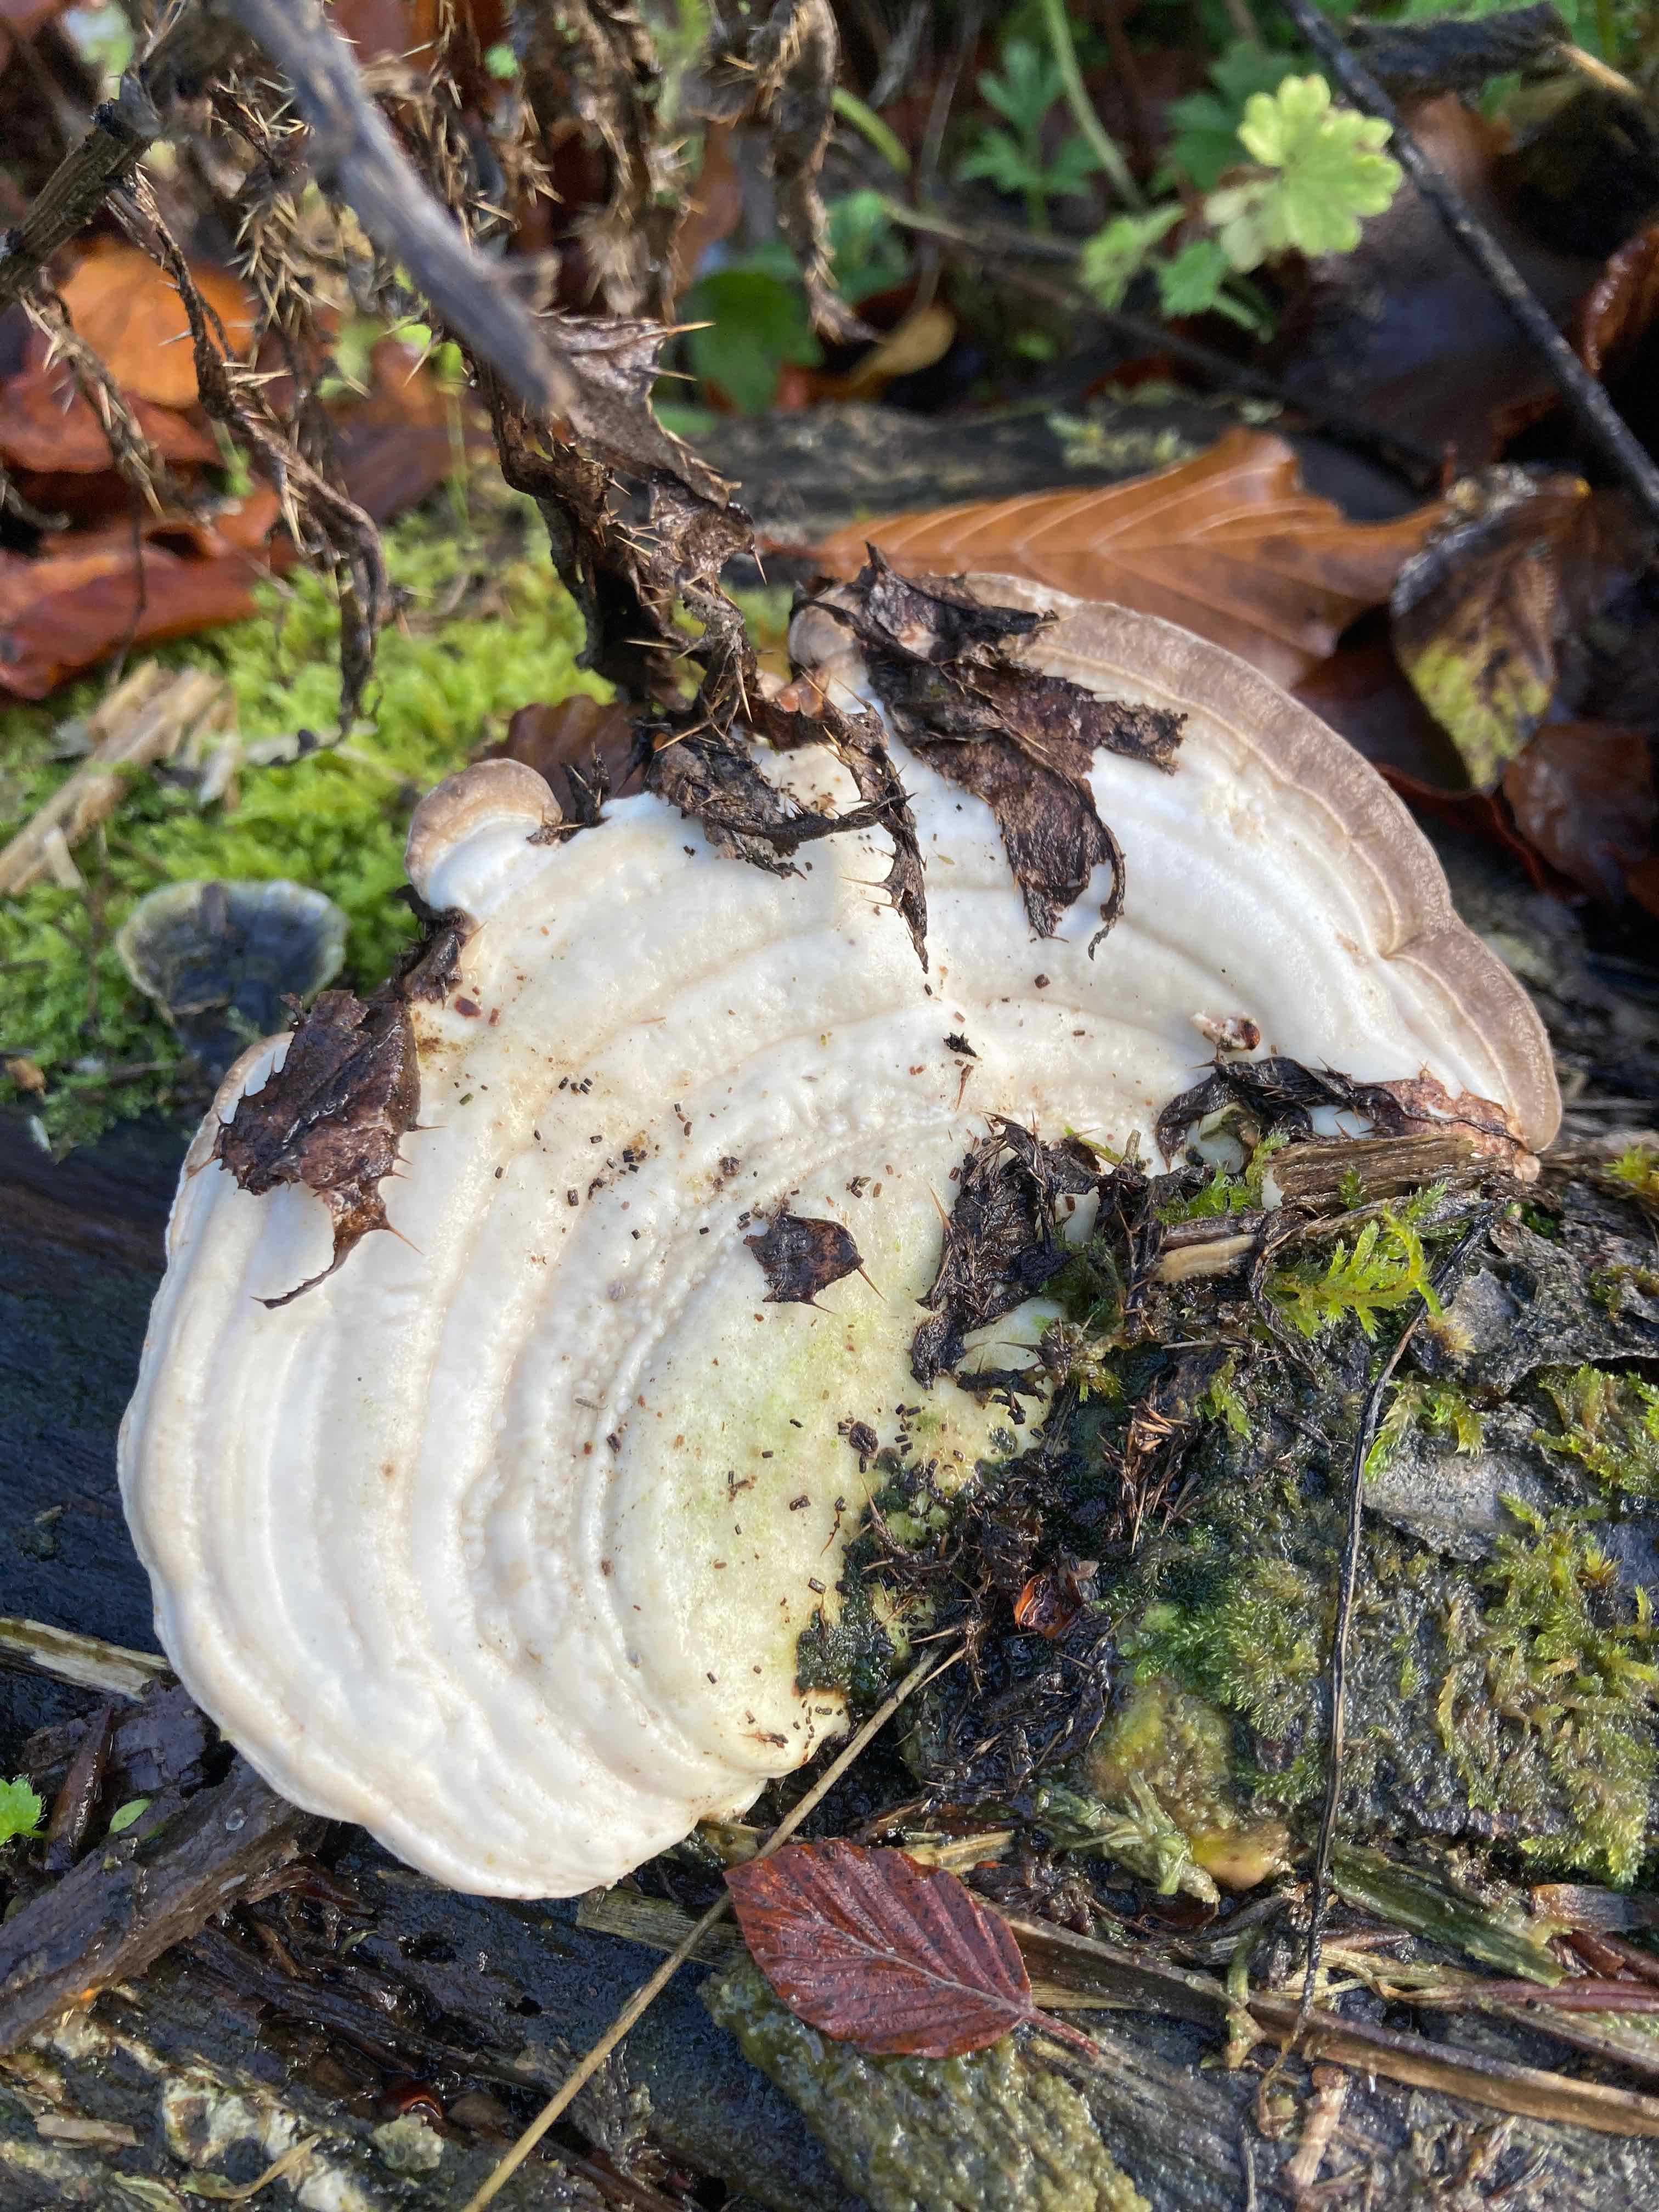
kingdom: Fungi
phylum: Basidiomycota
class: Agaricomycetes
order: Polyporales
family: Polyporaceae
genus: Trametes
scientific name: Trametes gibbosa
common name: puklet læderporesvamp
